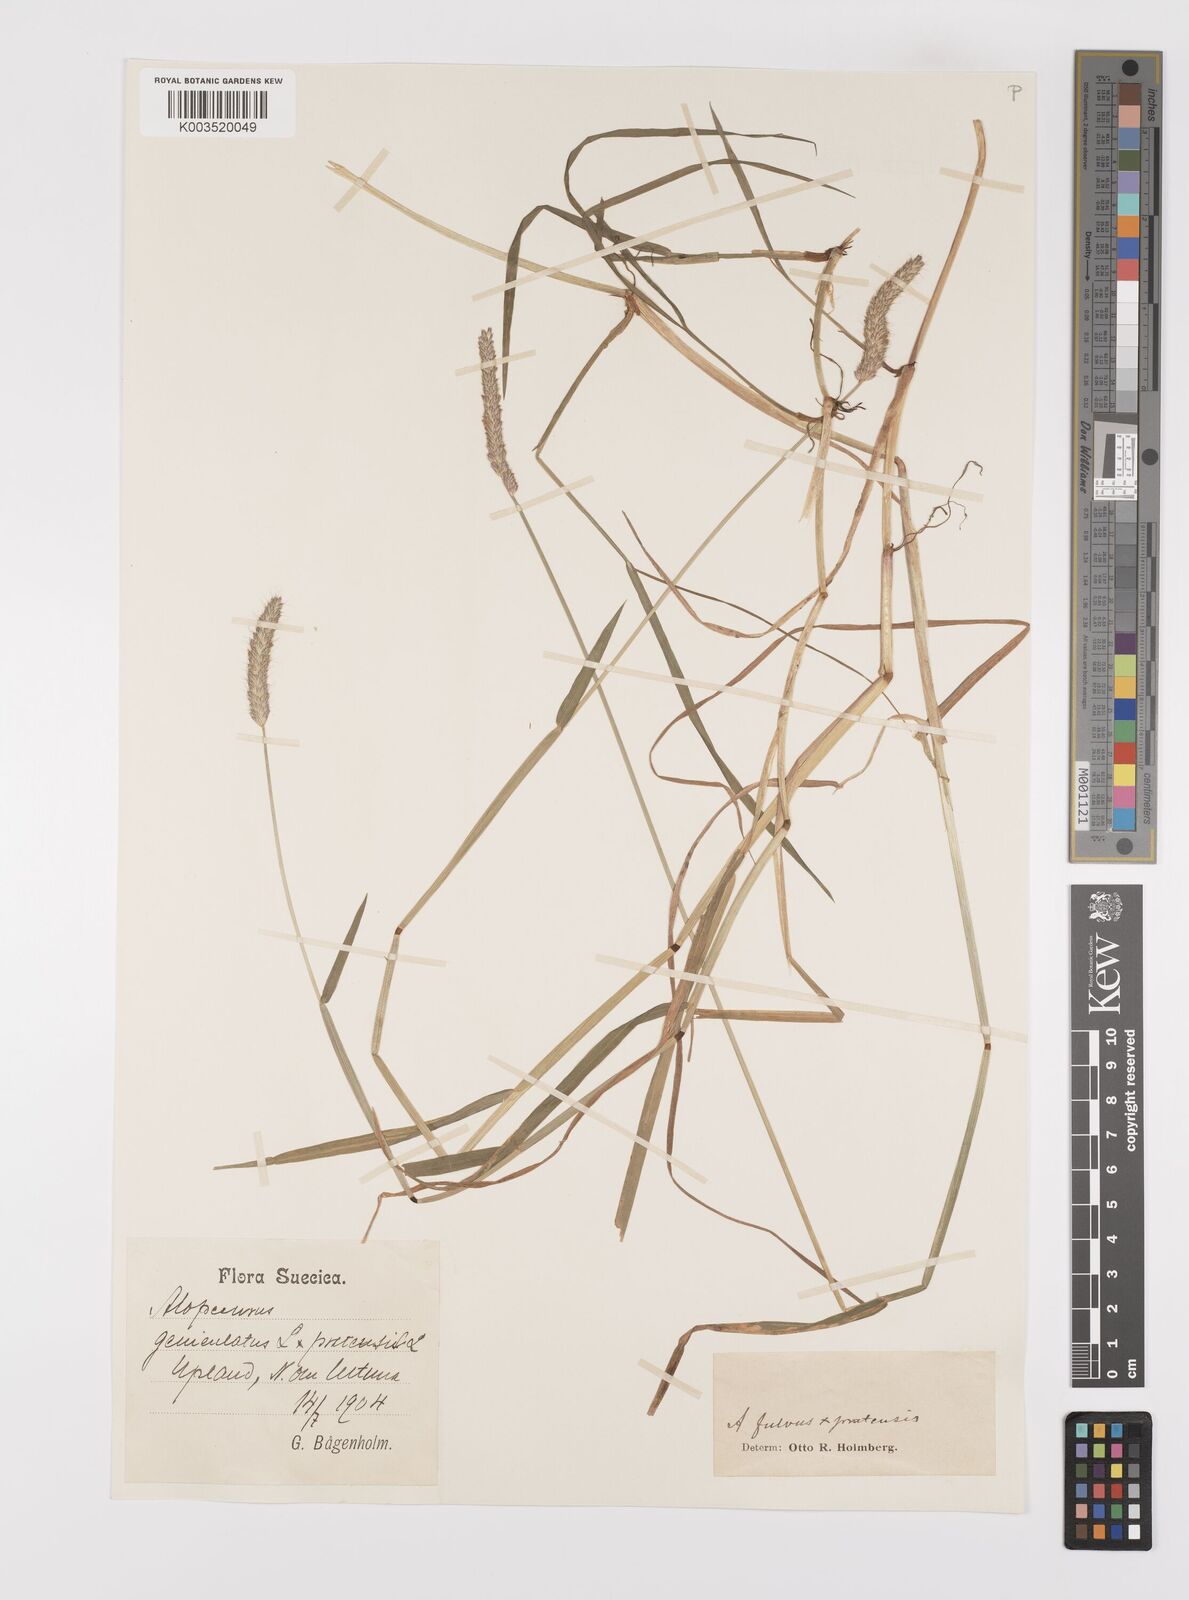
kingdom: Plantae
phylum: Tracheophyta
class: Liliopsida
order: Poales
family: Poaceae
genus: Alopecurus
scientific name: Alopecurus brachystylus
